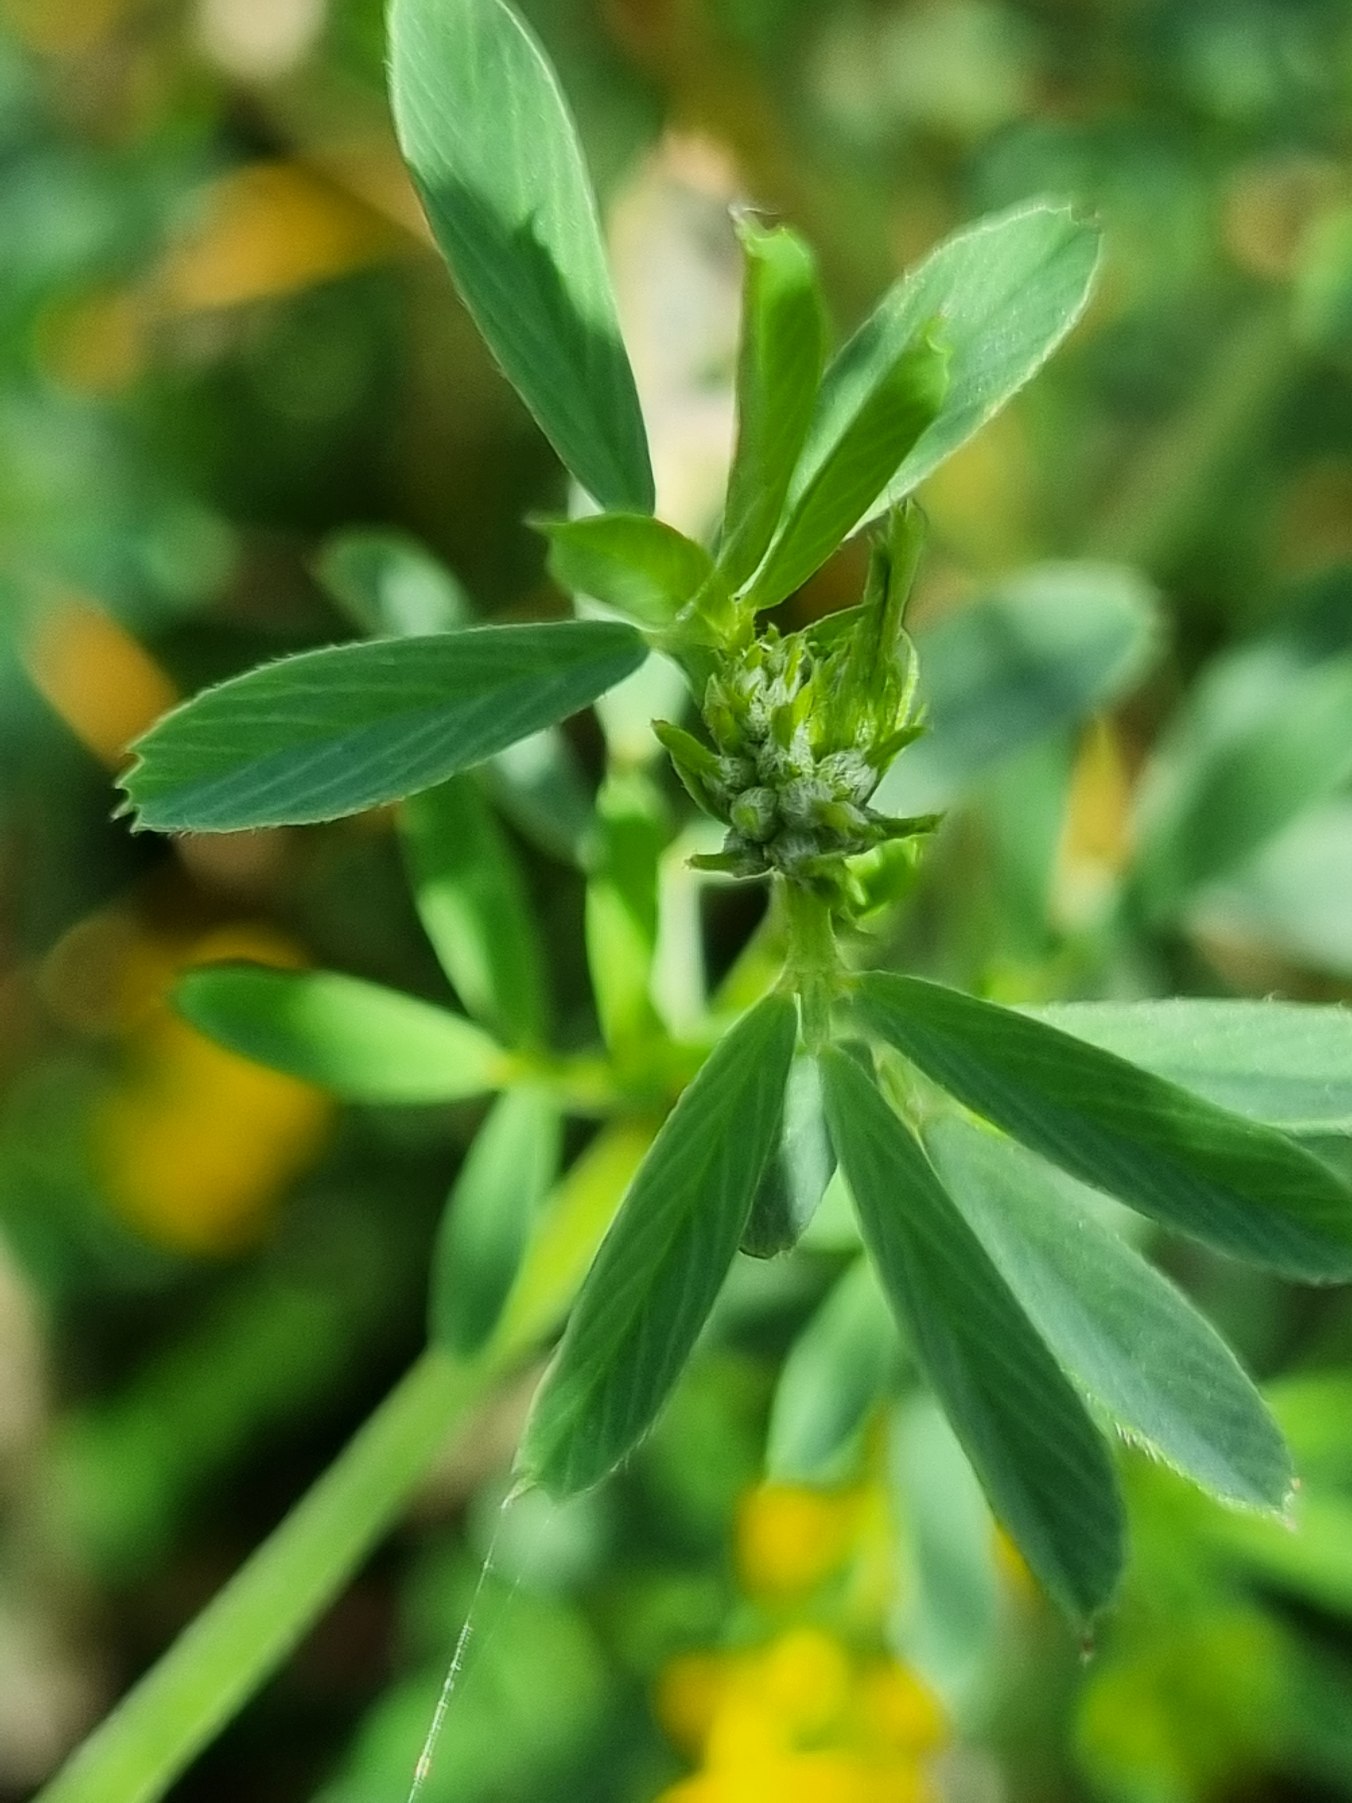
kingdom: Plantae
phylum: Tracheophyta
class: Magnoliopsida
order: Fabales
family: Fabaceae
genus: Medicago
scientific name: Medicago falcata
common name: Segl-sneglebælg
